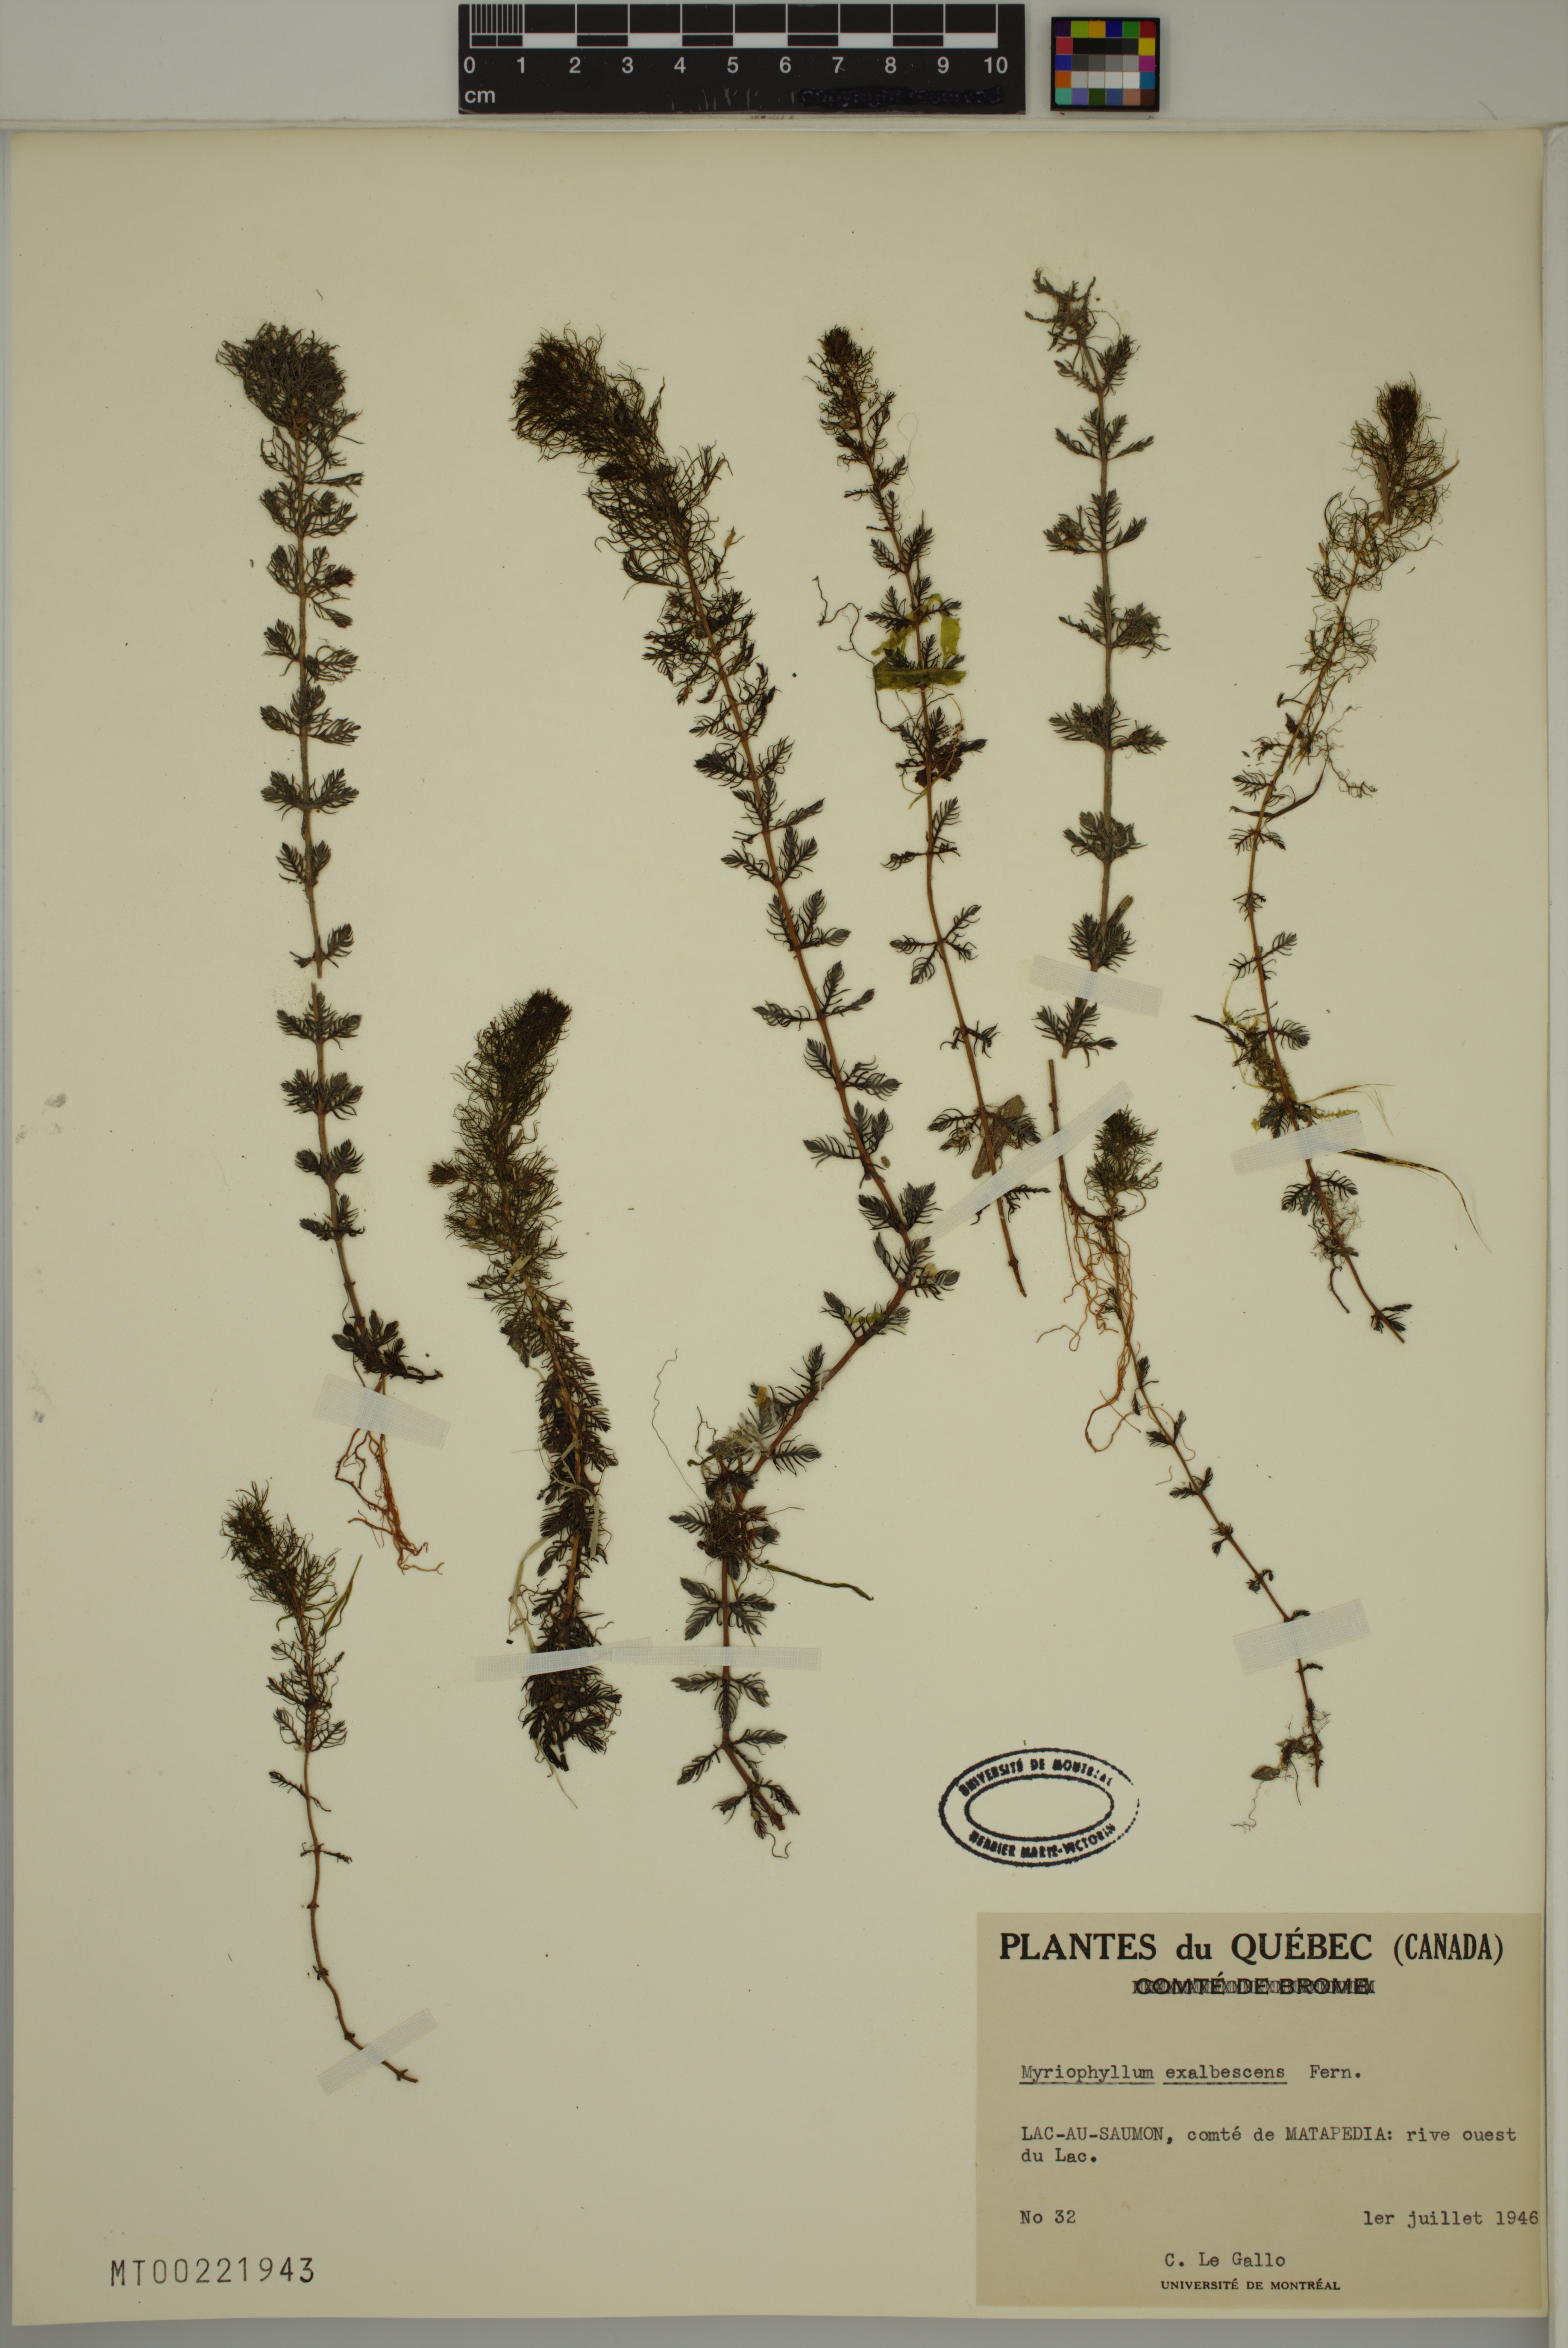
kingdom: Plantae
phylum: Tracheophyta
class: Magnoliopsida
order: Saxifragales
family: Haloragaceae
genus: Myriophyllum
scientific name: Myriophyllum sibiricum
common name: Siberian water-milfoil
